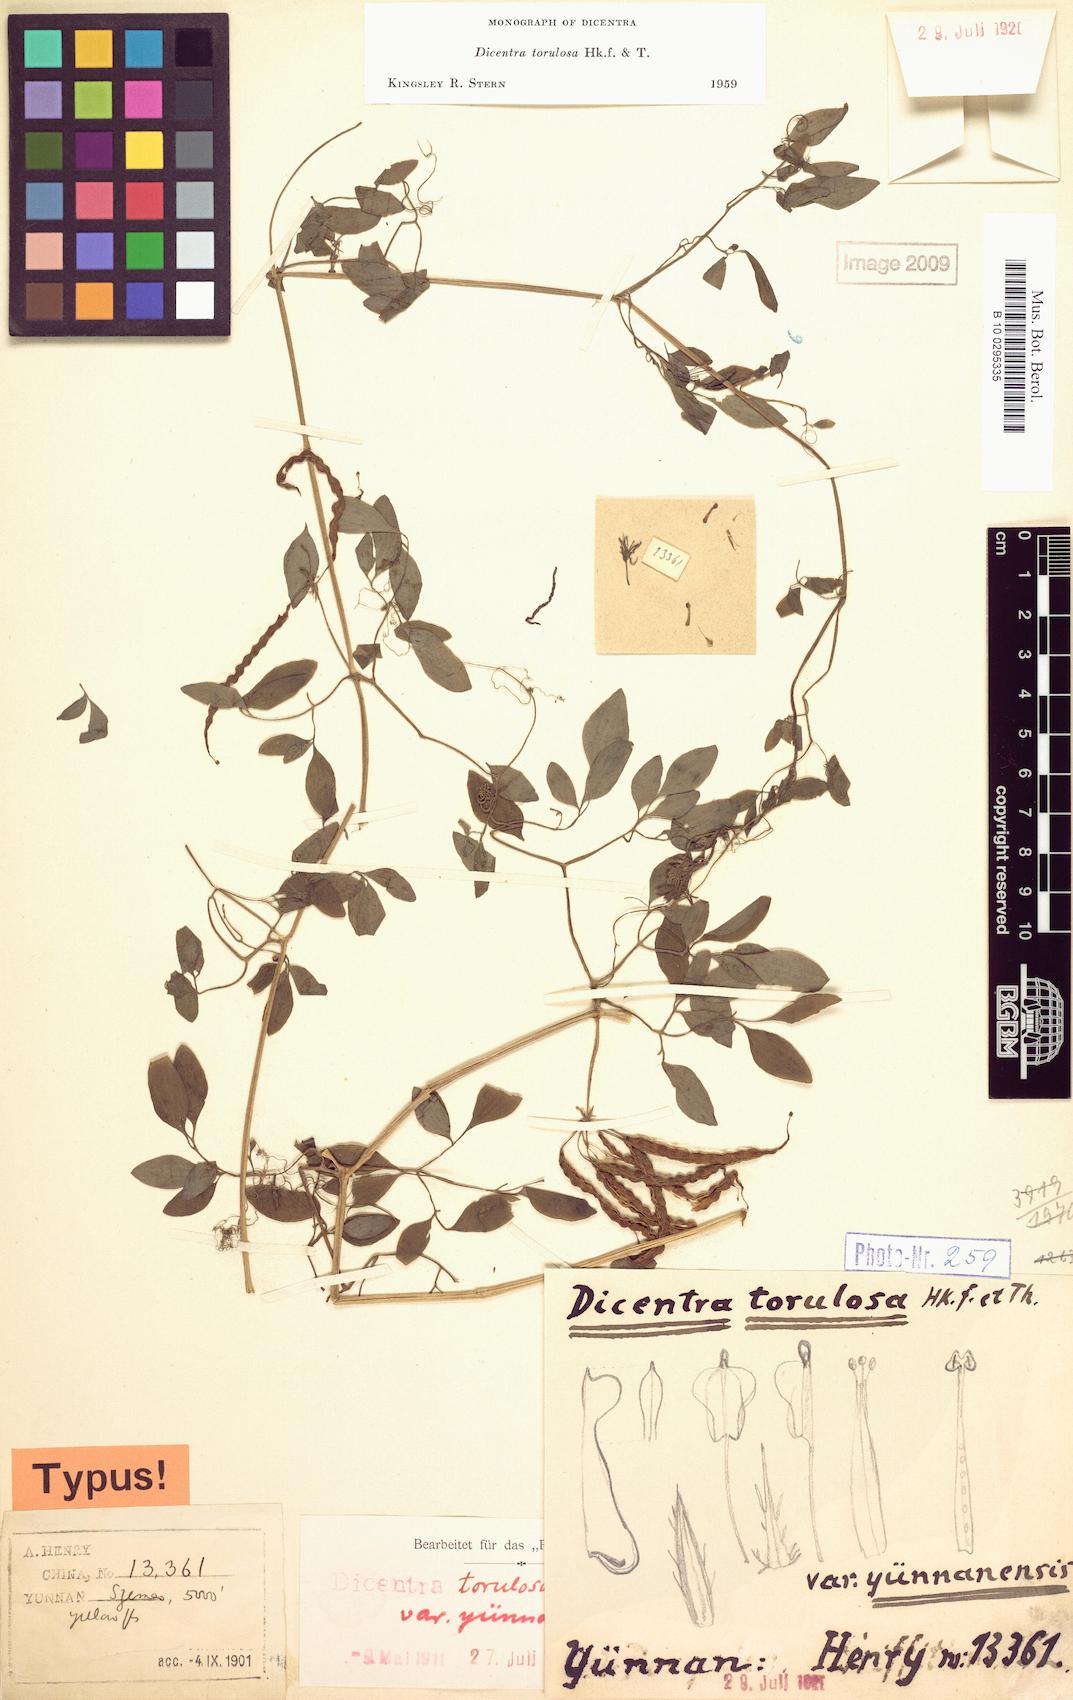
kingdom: Plantae
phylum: Tracheophyta
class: Magnoliopsida
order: Ranunculales
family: Papaveraceae
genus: Dactylicapnos
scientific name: Dactylicapnos torulosa
